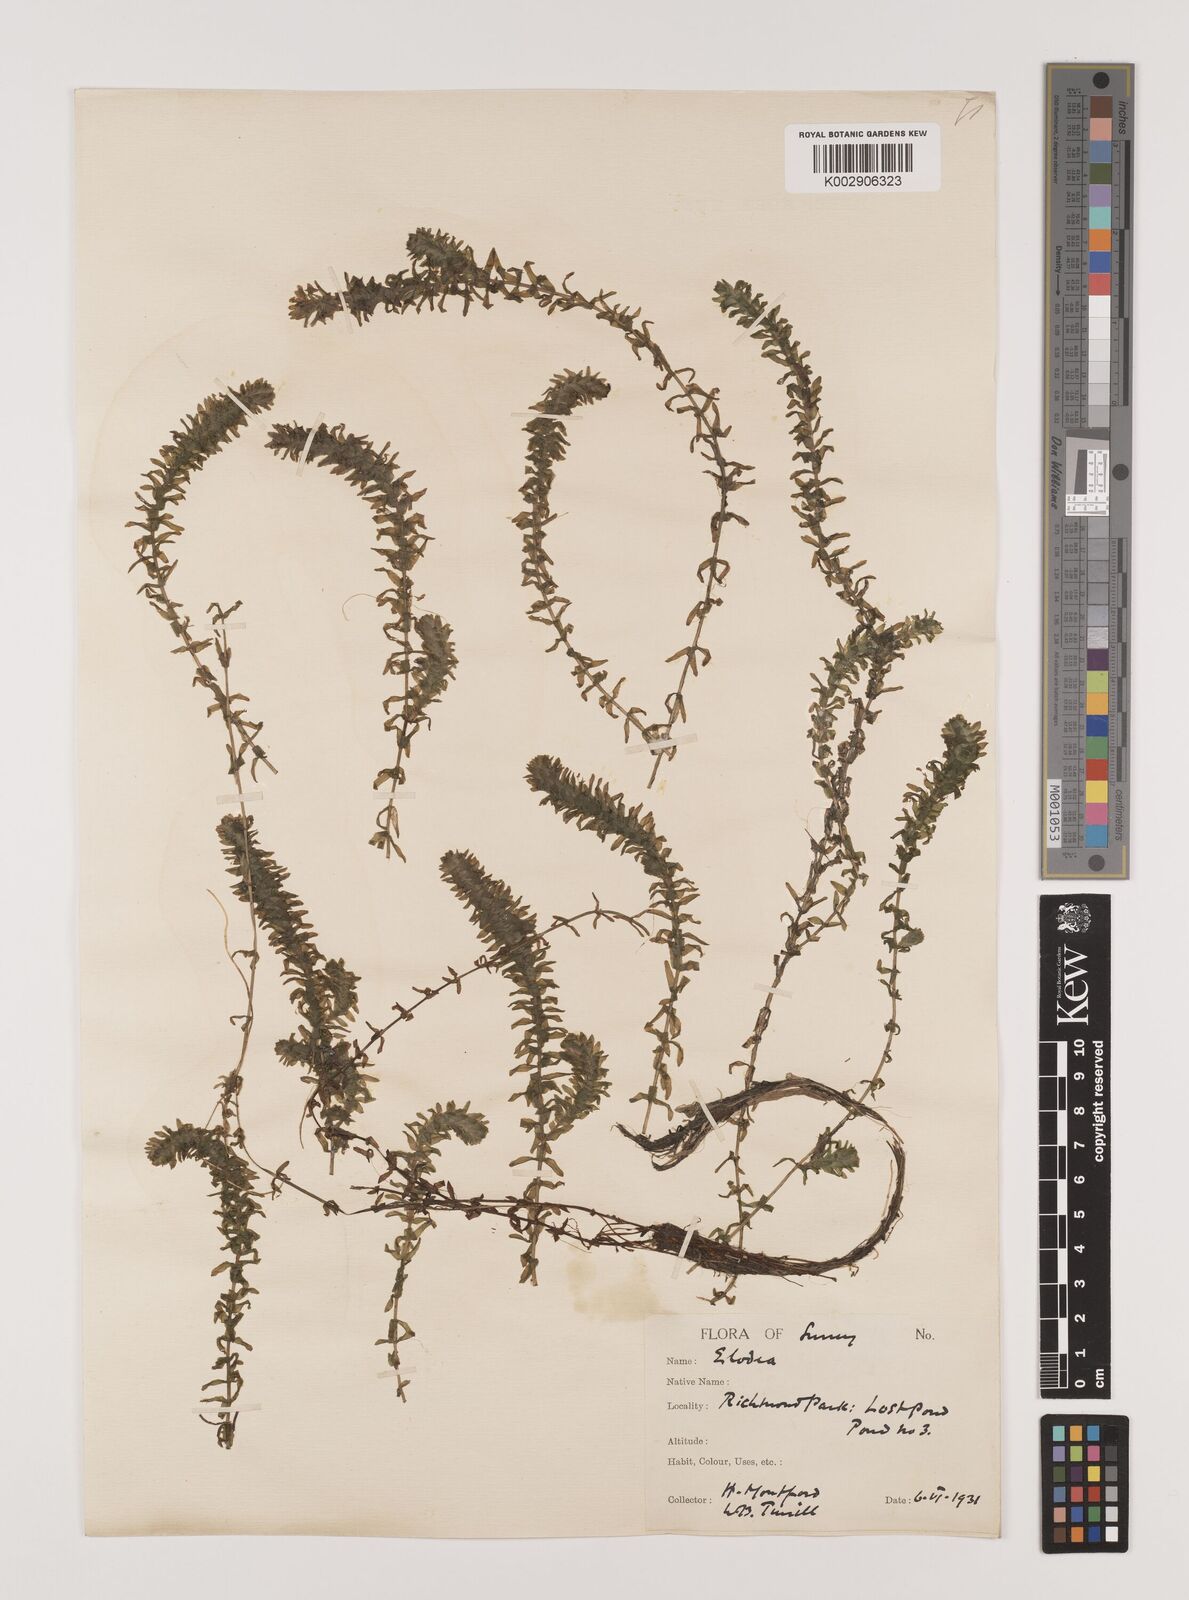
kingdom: Plantae
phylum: Tracheophyta
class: Liliopsida
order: Alismatales
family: Hydrocharitaceae
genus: Elodea
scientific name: Elodea canadensis
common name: Canadian waterweed
